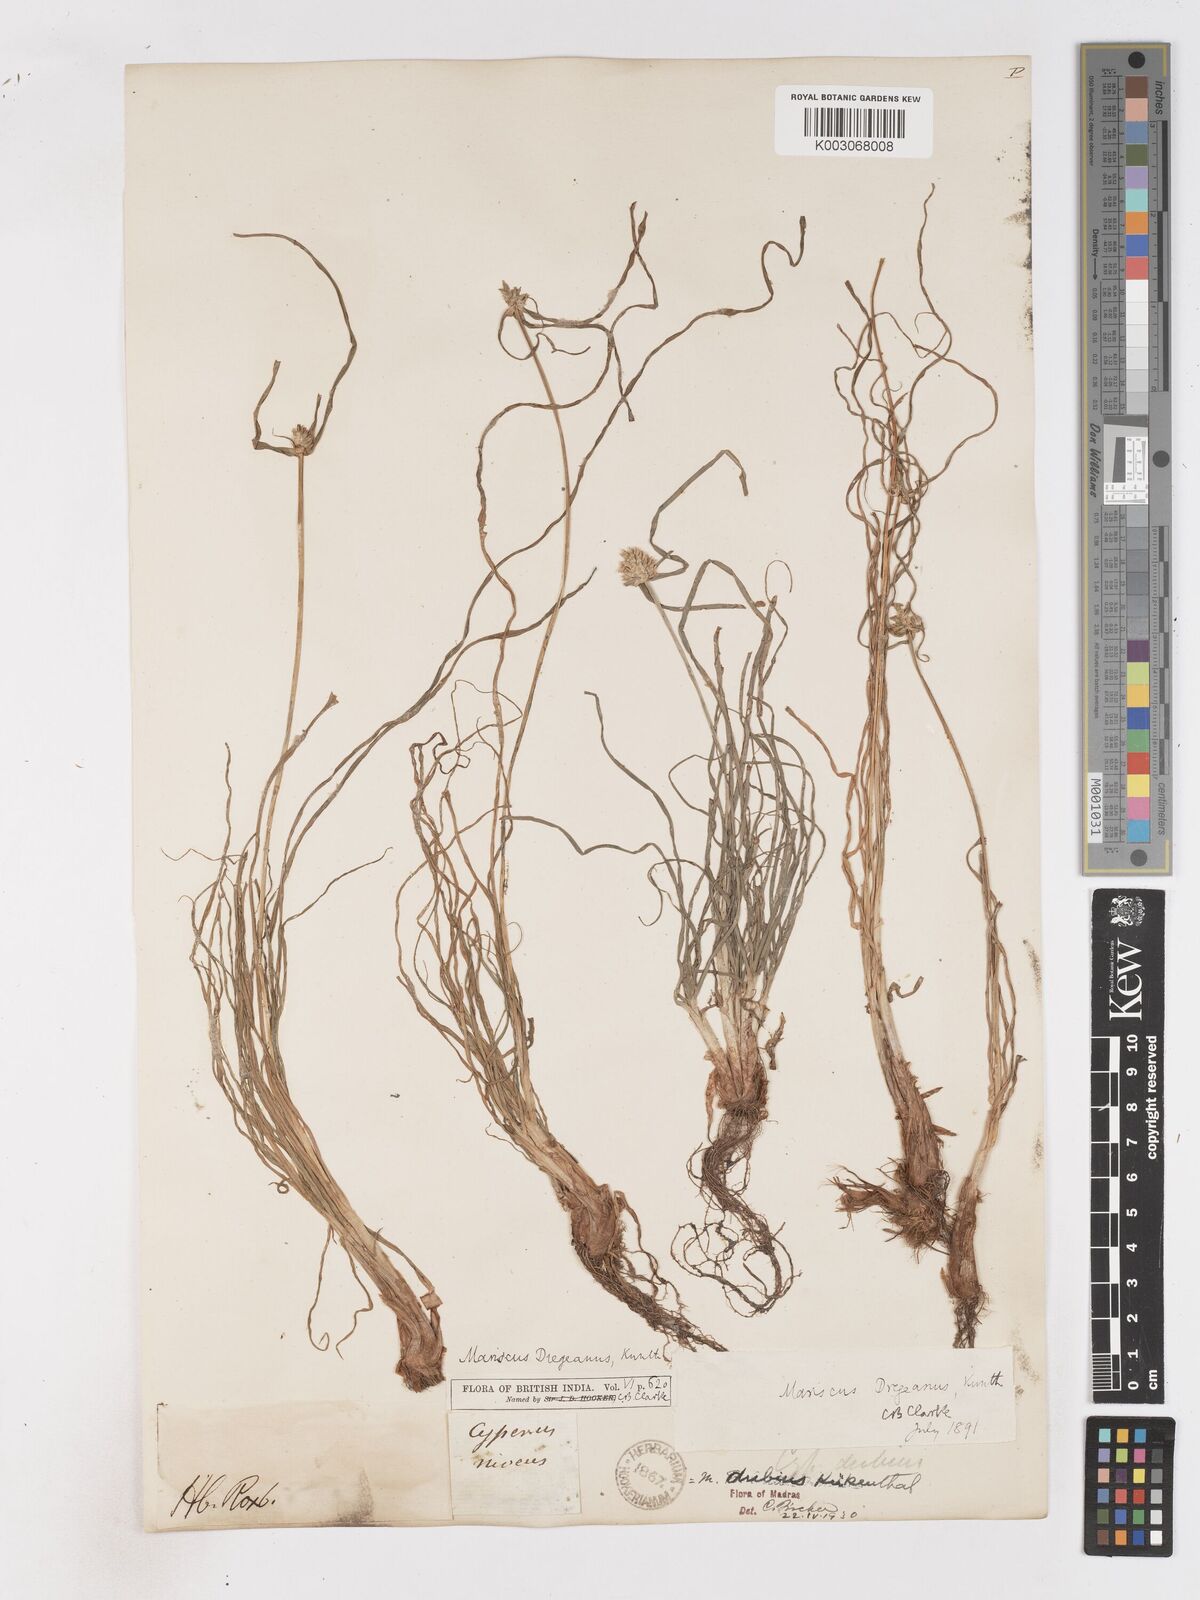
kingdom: Plantae
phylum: Tracheophyta
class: Liliopsida
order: Poales
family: Cyperaceae
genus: Cyperus
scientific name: Cyperus dubius
